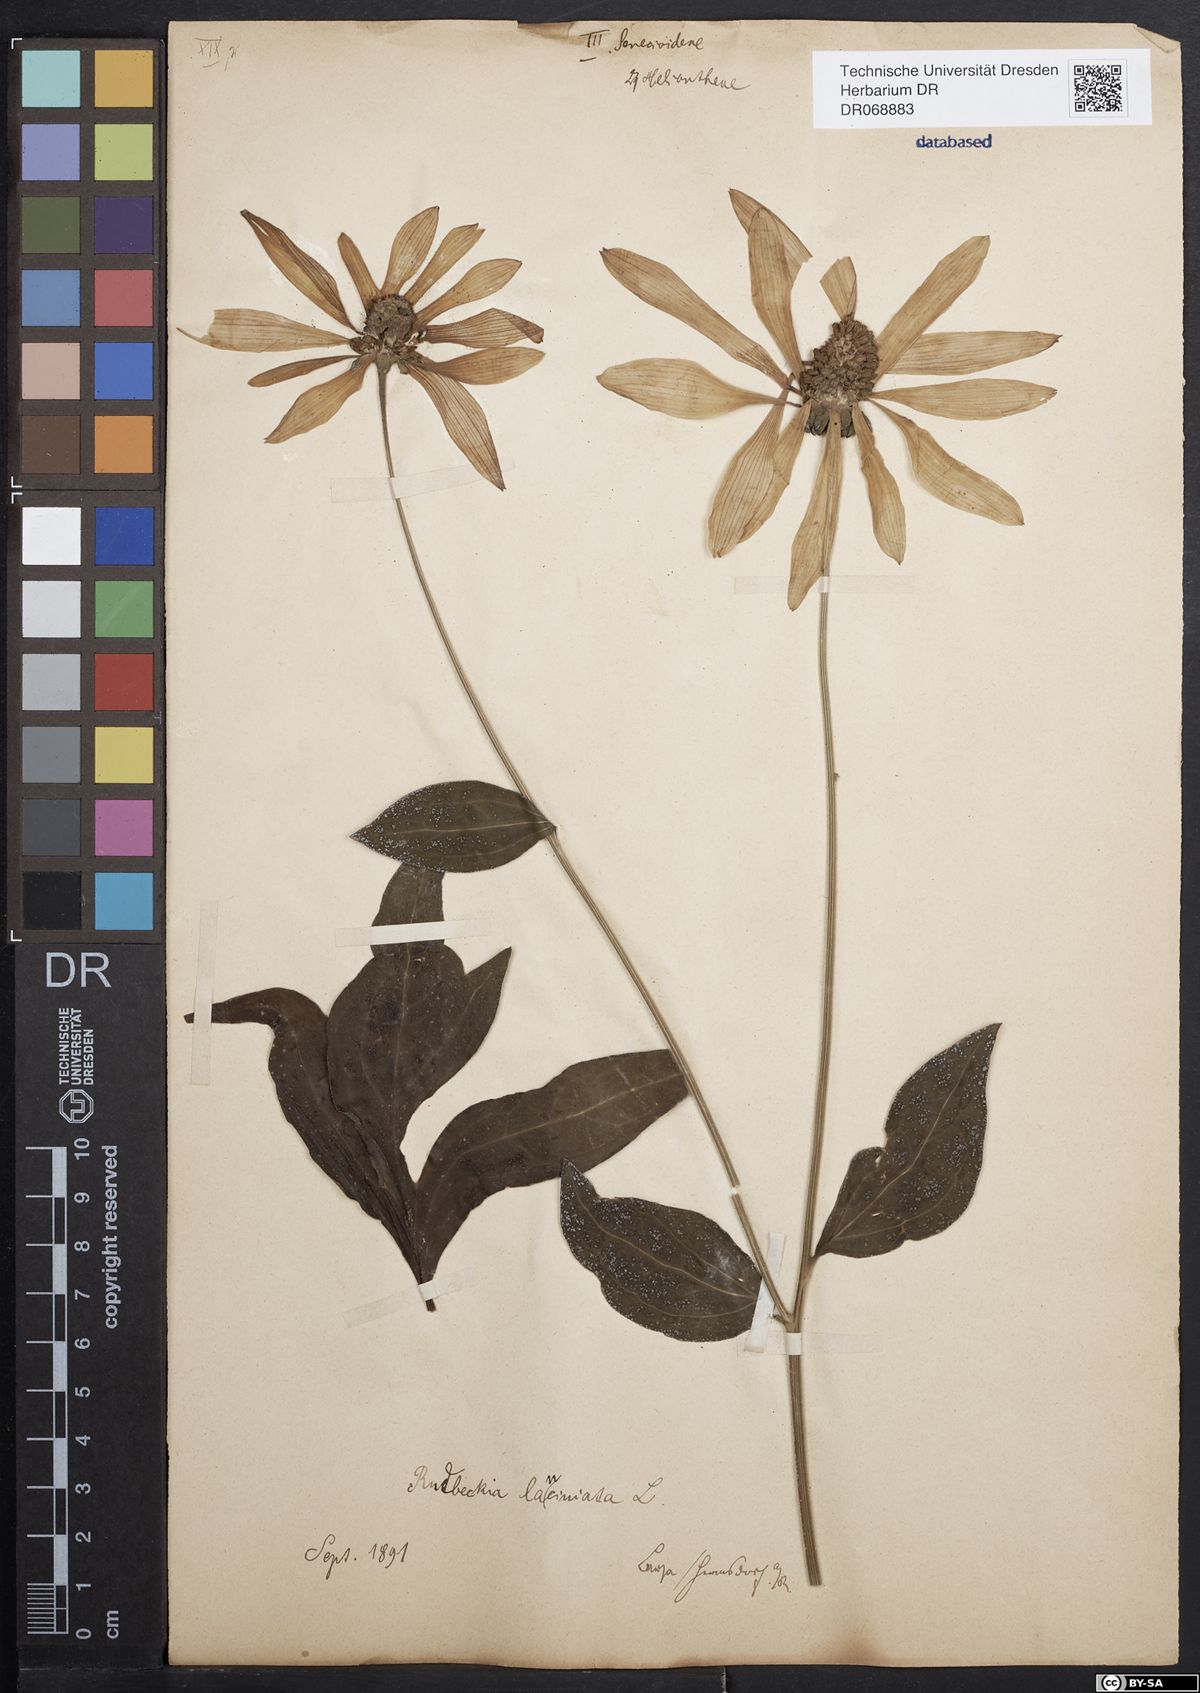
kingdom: Plantae
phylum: Tracheophyta
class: Magnoliopsida
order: Asterales
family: Asteraceae
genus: Rudbeckia
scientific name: Rudbeckia laciniata
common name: Coneflower
